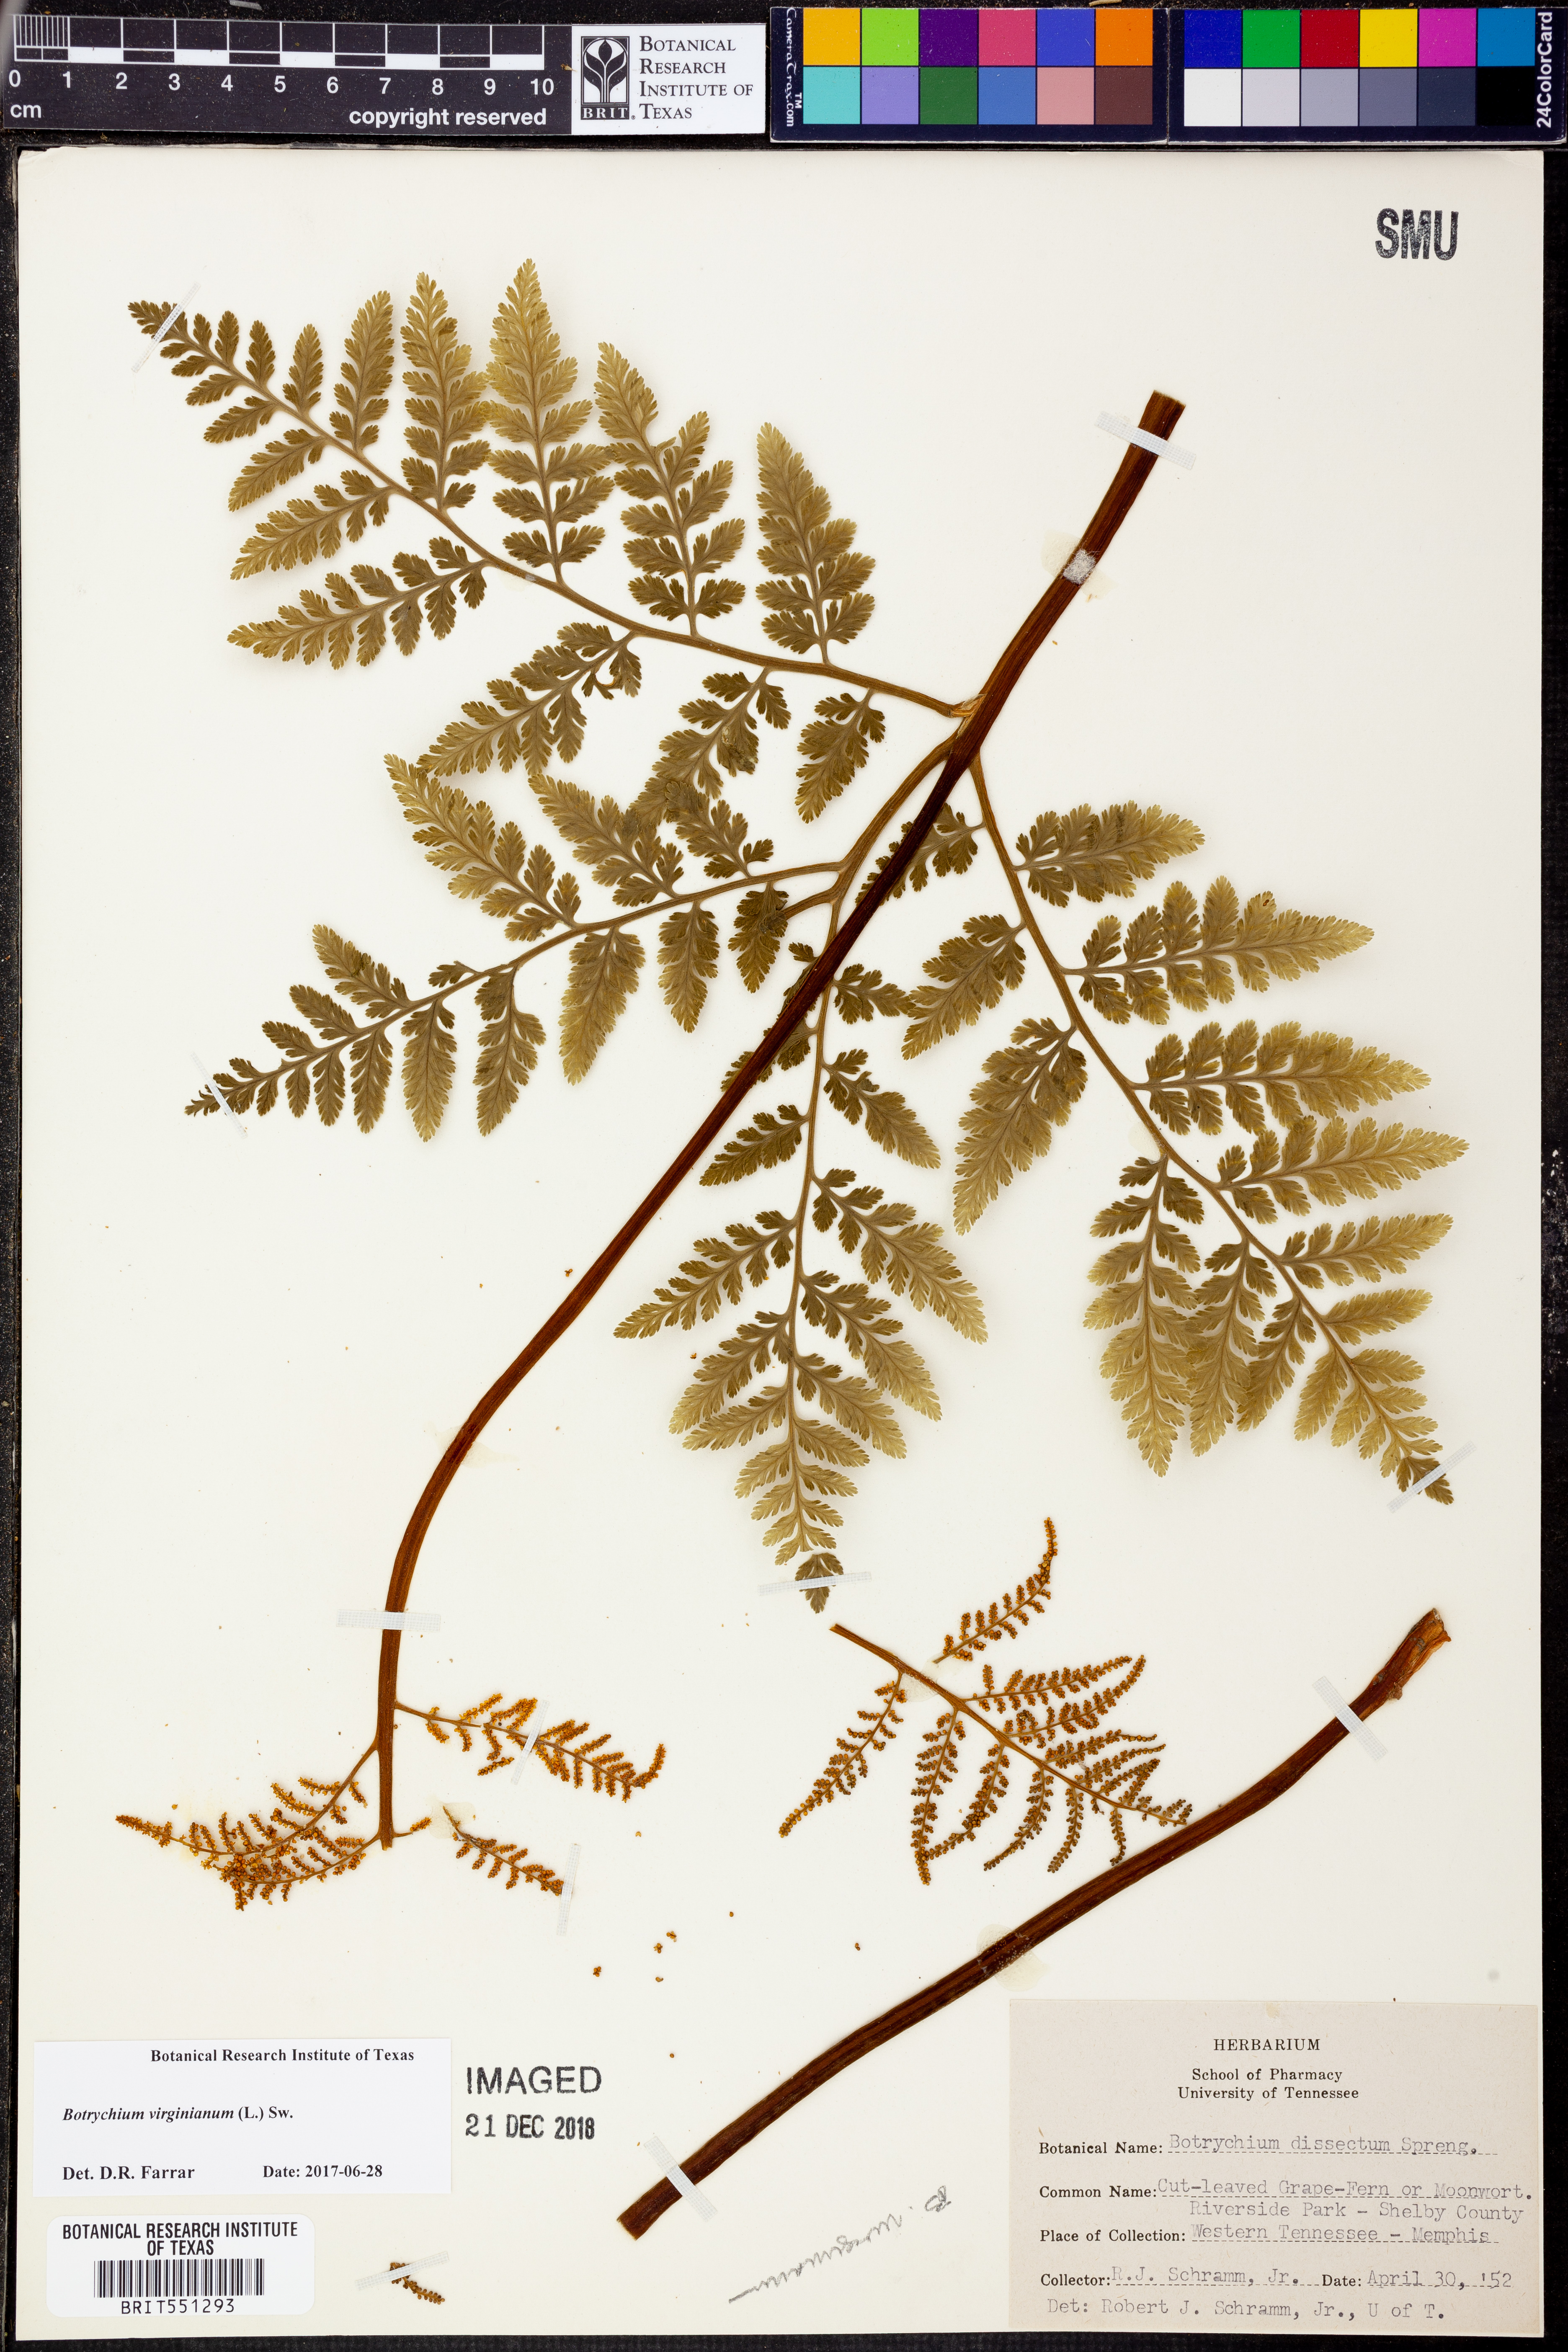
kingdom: Plantae
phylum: Tracheophyta
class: Polypodiopsida
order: Ophioglossales
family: Ophioglossaceae
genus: Botrypus
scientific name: Botrypus virginianus
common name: Common grapefern
